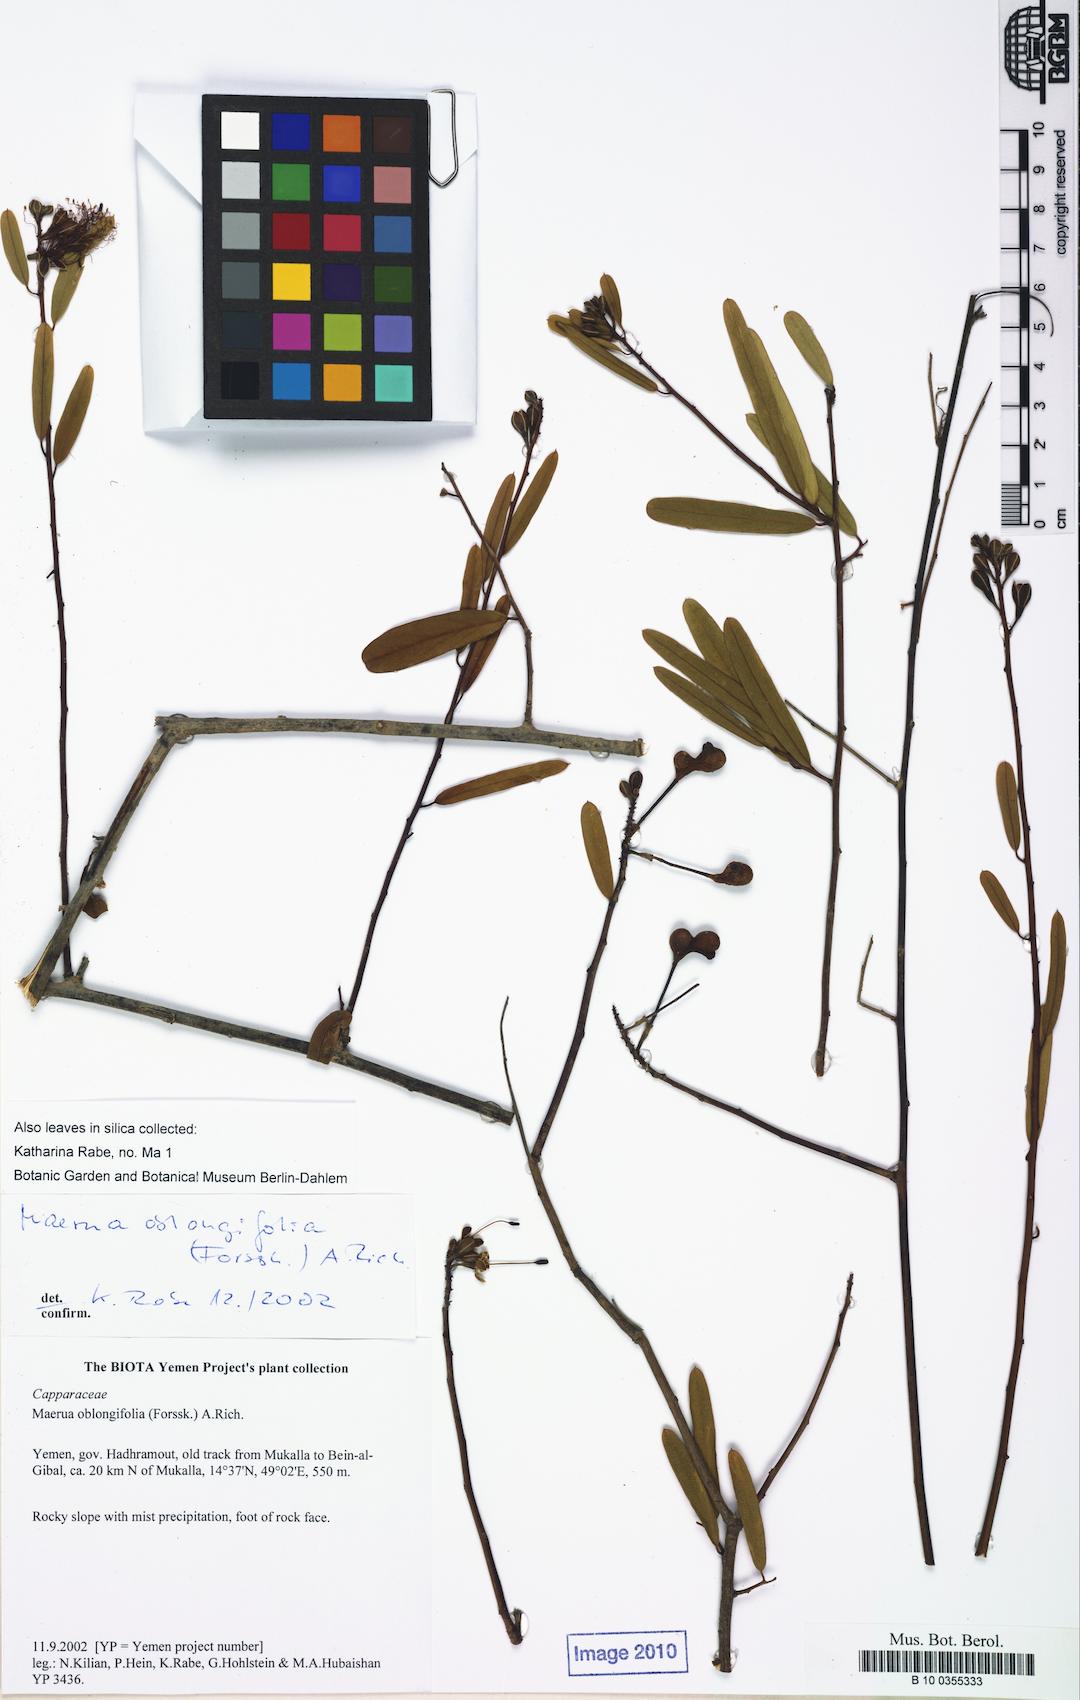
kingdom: Plantae
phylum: Tracheophyta
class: Magnoliopsida
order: Brassicales
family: Capparaceae
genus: Maerua
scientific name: Maerua oblongifolia
